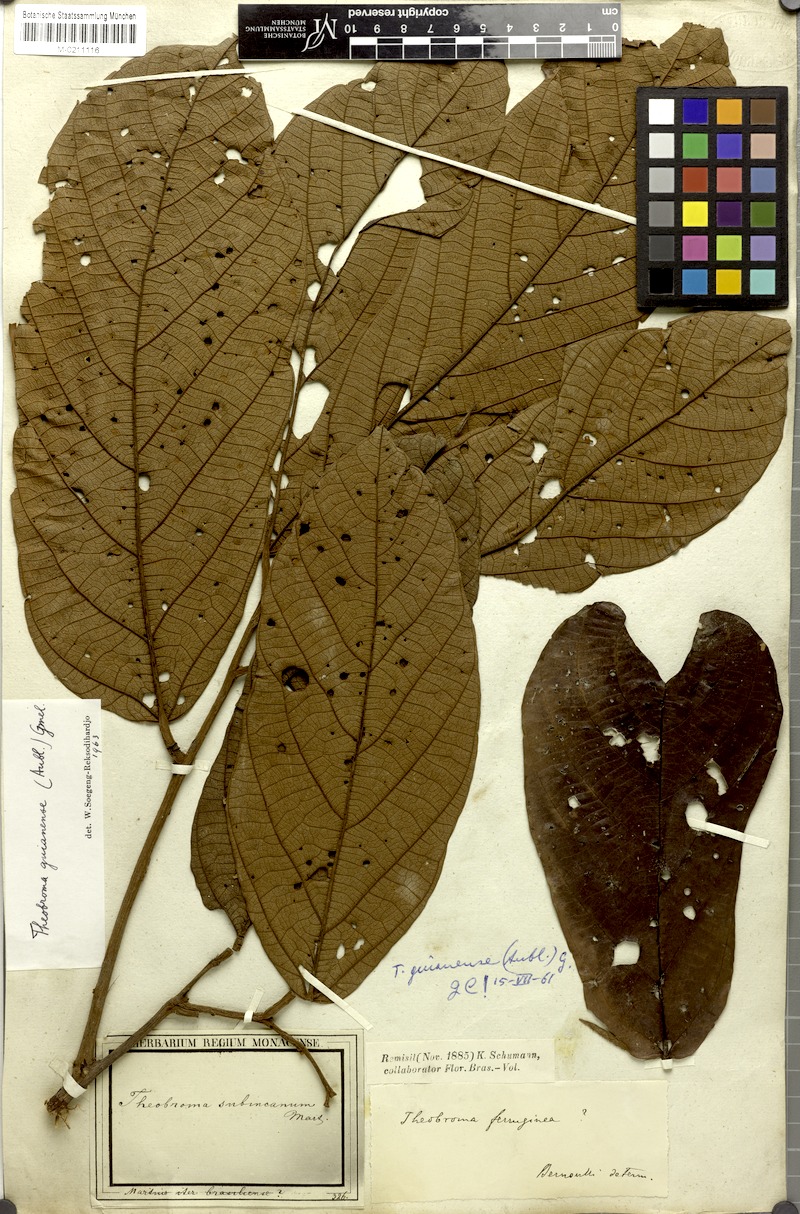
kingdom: Plantae
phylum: Tracheophyta
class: Magnoliopsida
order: Malvales
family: Malvaceae
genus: Theobroma
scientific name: Theobroma subincanum
